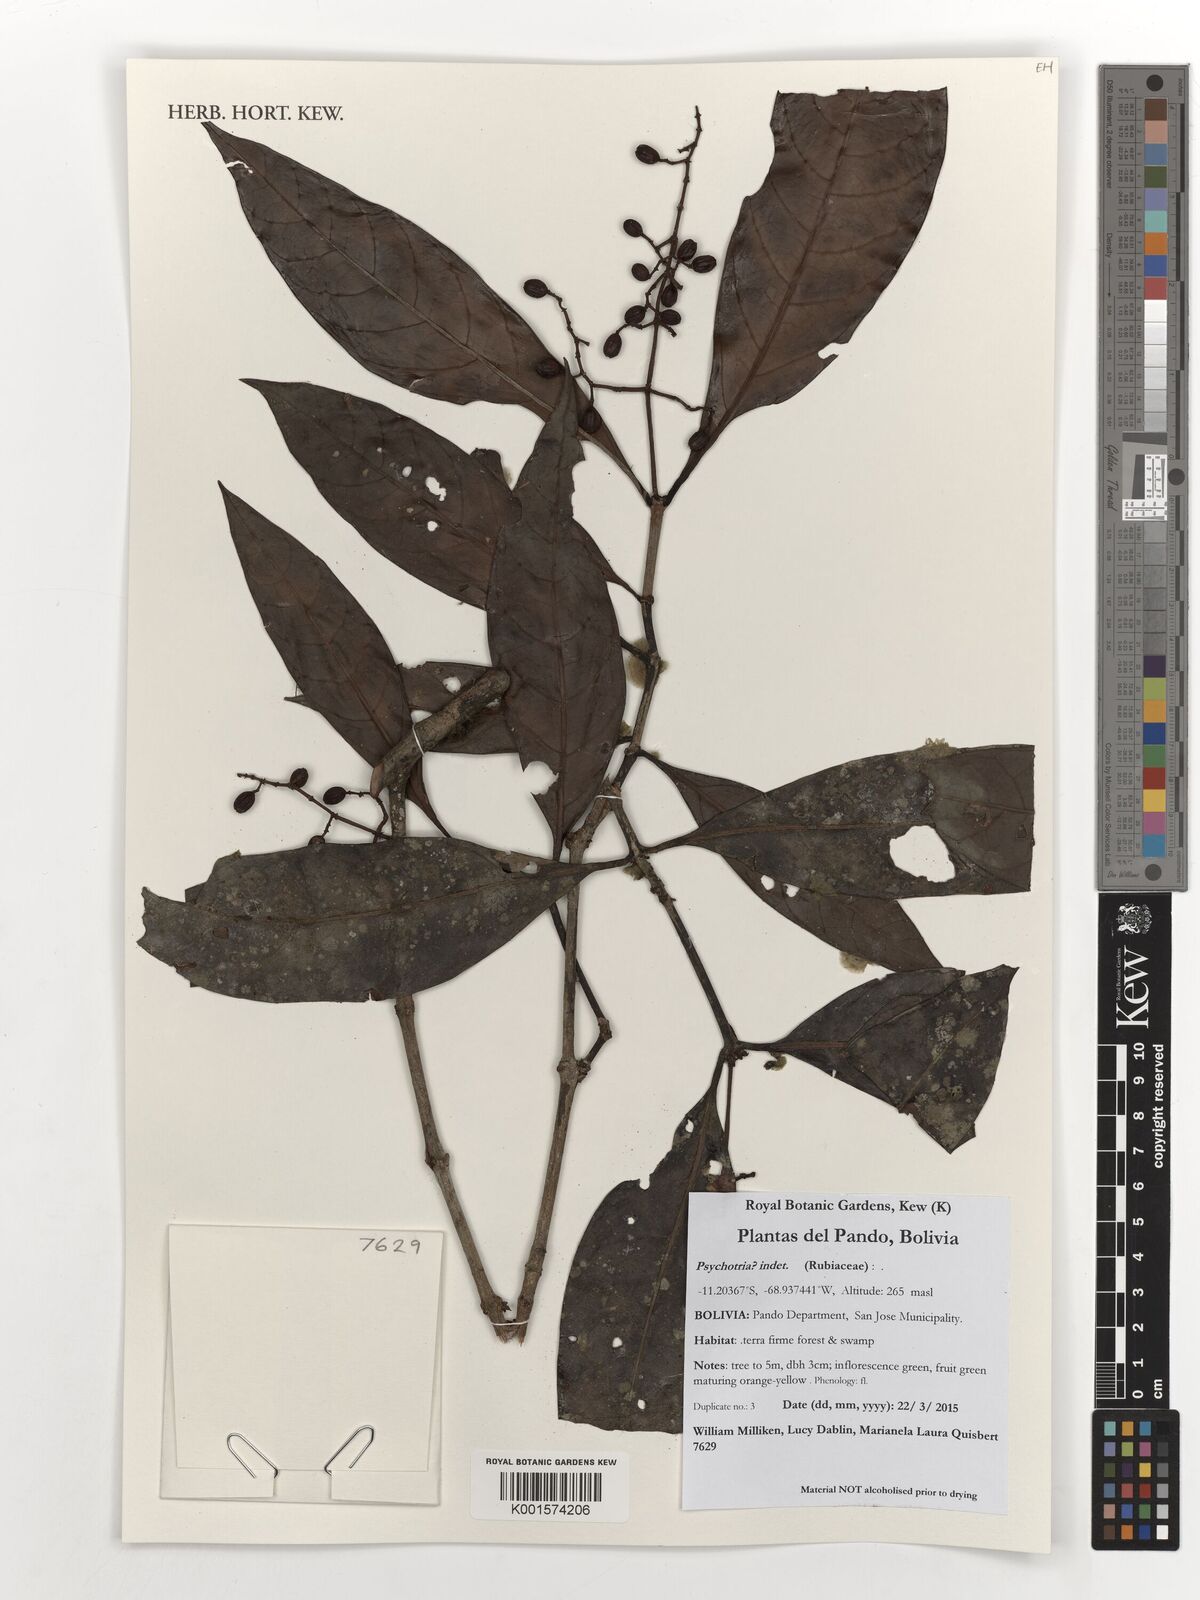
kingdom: Plantae
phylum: Tracheophyta
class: Magnoliopsida
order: Gentianales
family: Rubiaceae
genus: Psychotria
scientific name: Psychotria
